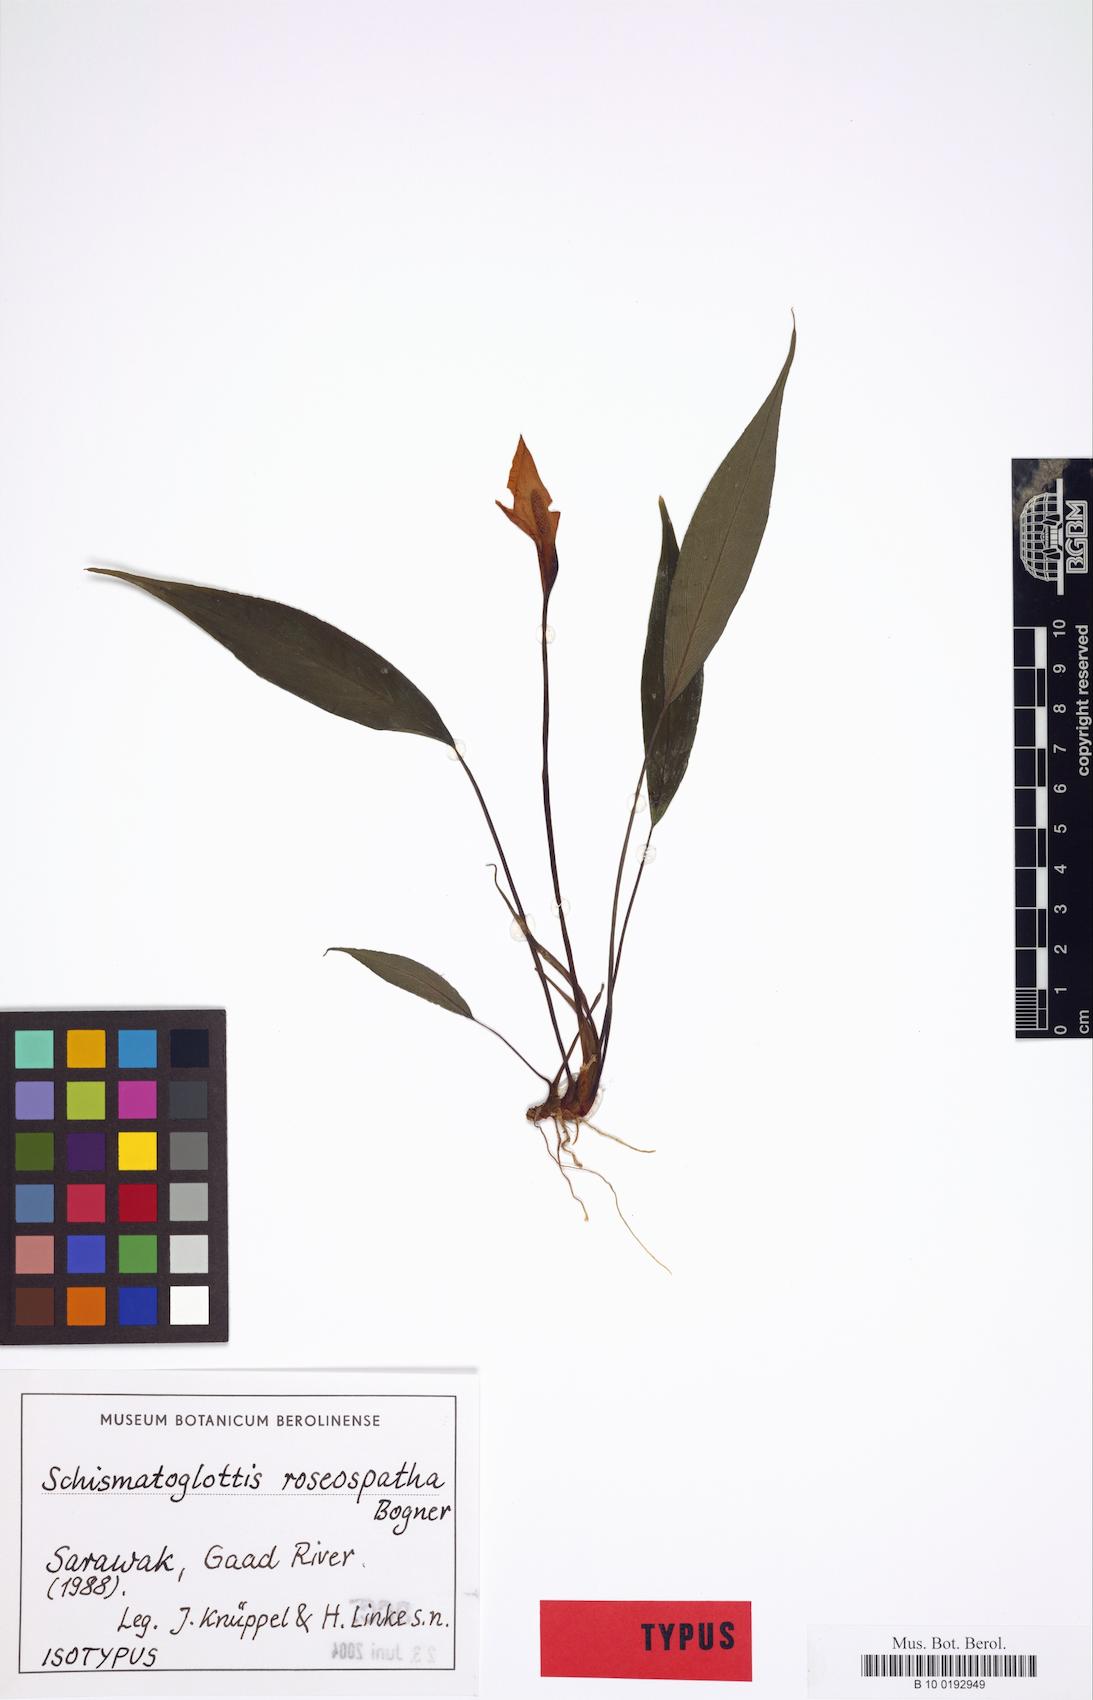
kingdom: Plantae
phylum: Tracheophyta
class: Liliopsida
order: Alismatales
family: Araceae
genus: Schismatoglottis
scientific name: Schismatoglottis roseospatha
